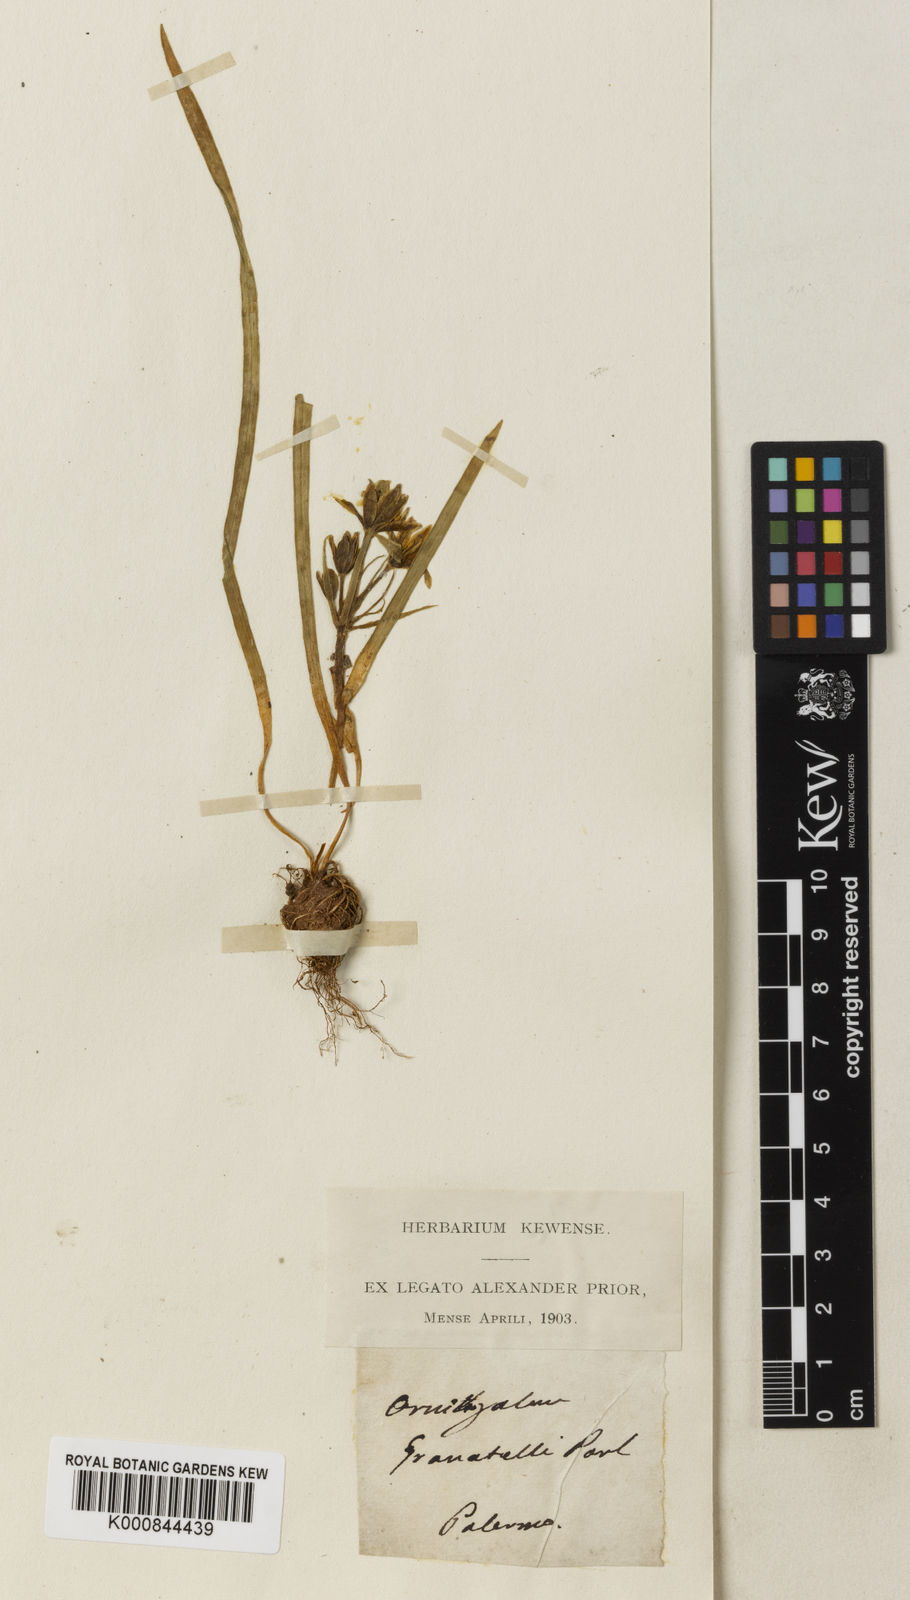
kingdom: Plantae
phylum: Tracheophyta
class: Liliopsida
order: Liliales
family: Liliaceae
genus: Gagea
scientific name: Gagea
